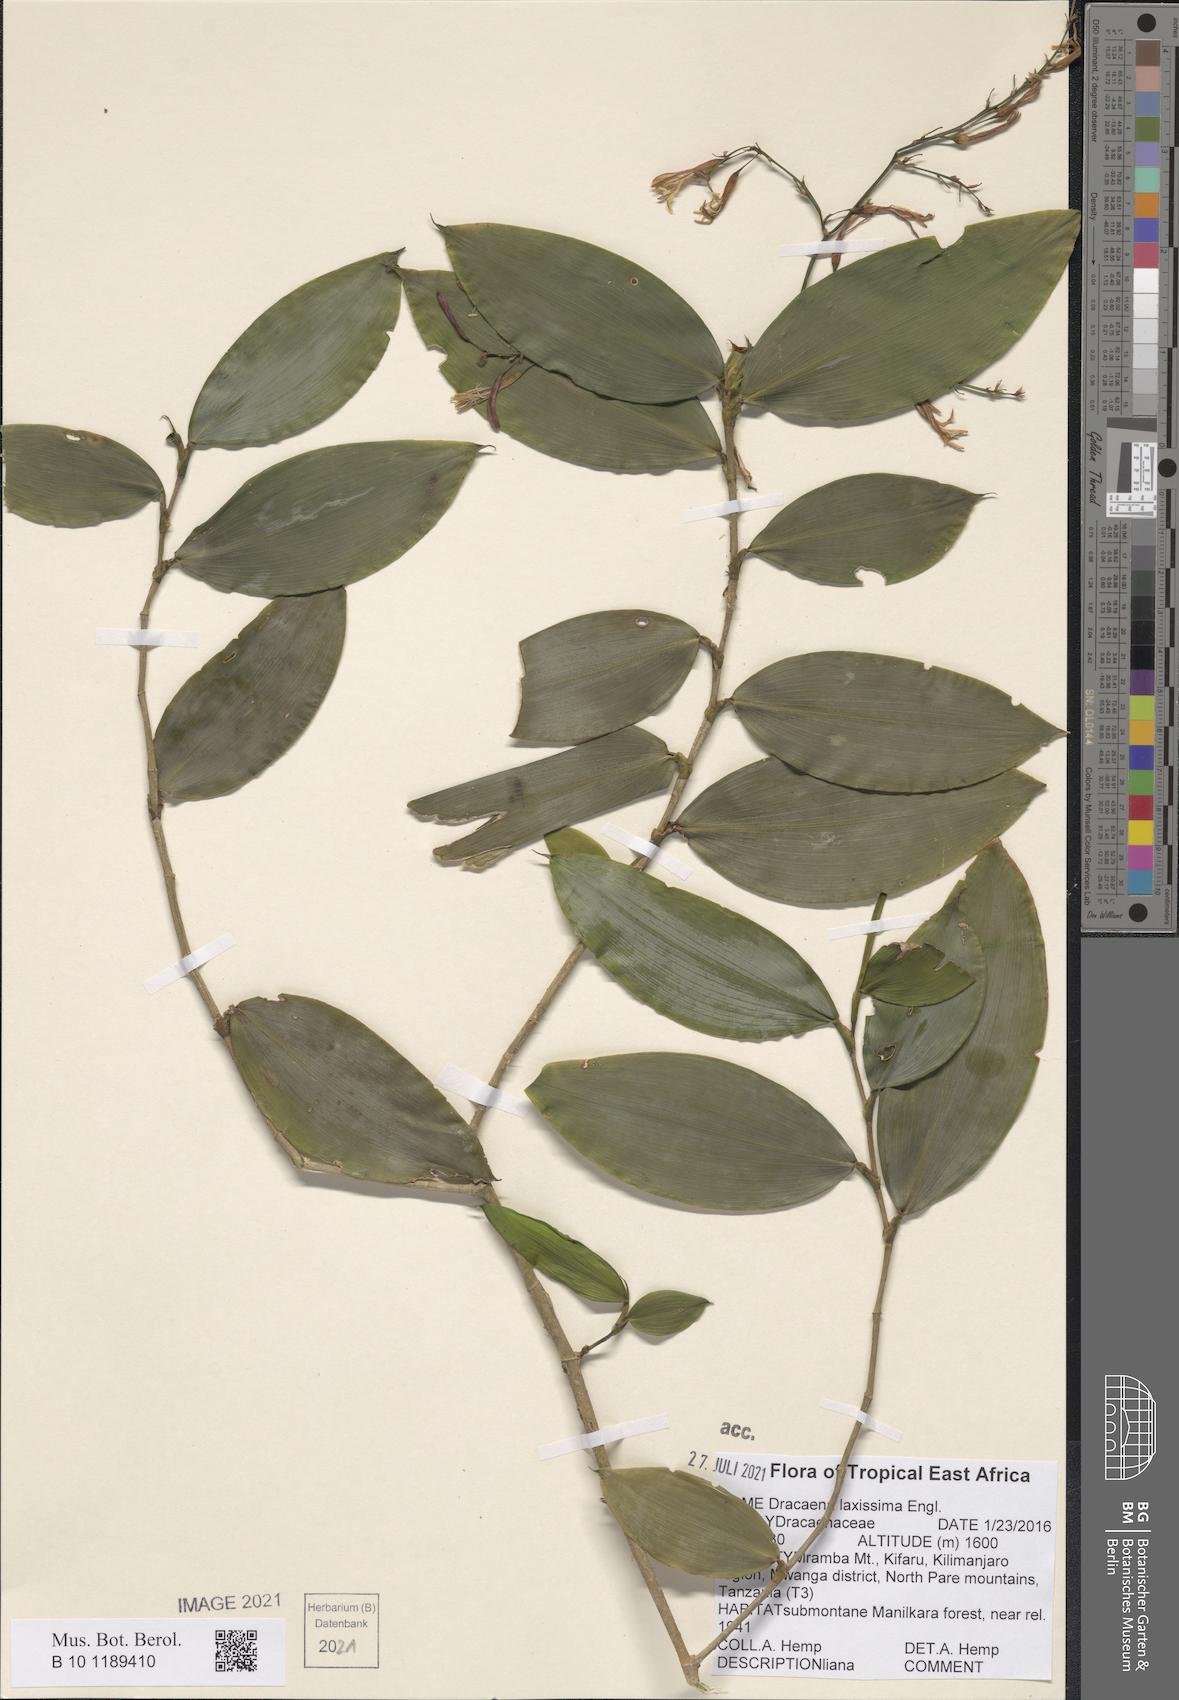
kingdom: Plantae
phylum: Tracheophyta
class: Liliopsida
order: Asparagales
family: Asparagaceae
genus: Dracaena
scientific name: Dracaena laxissima
